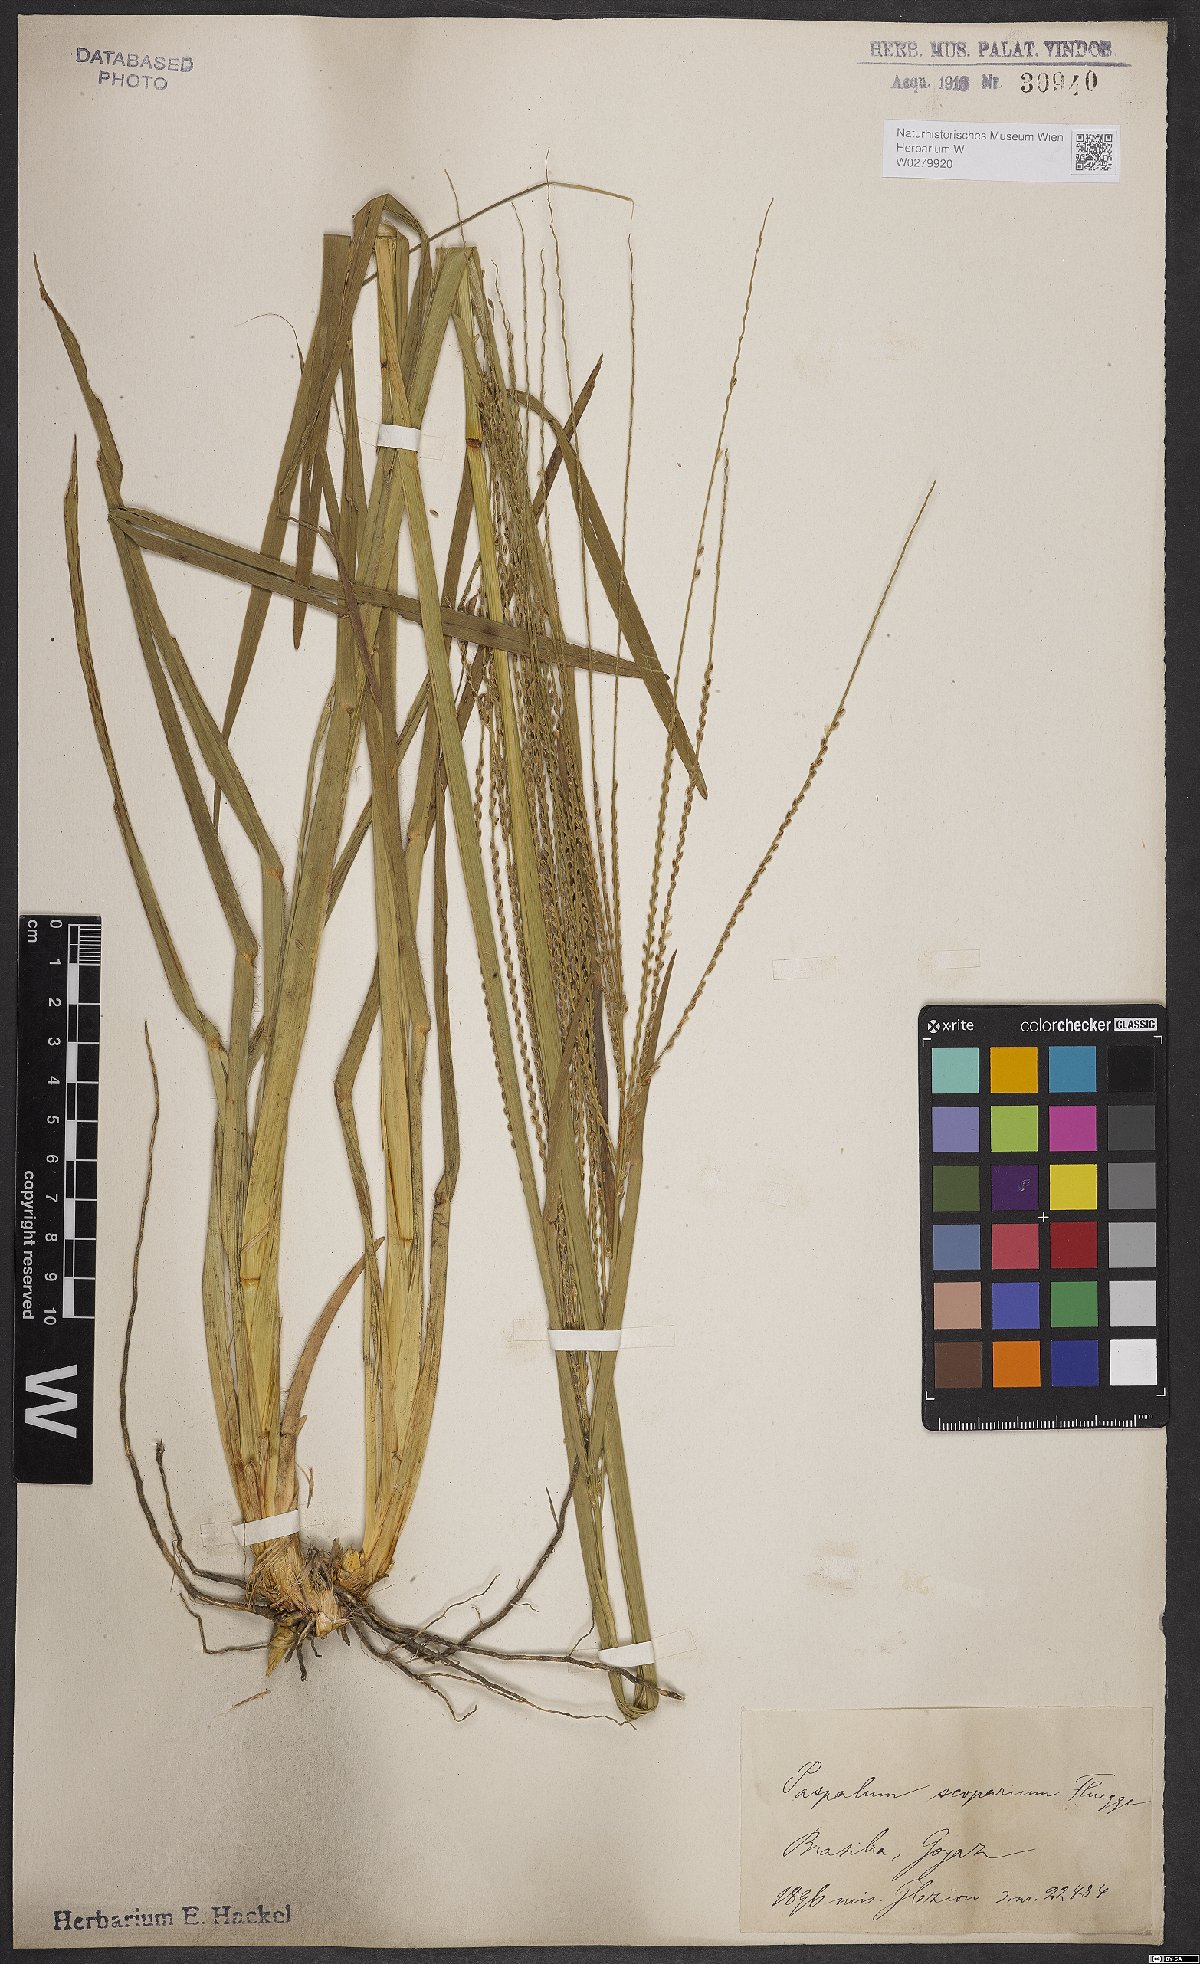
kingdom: Plantae
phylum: Tracheophyta
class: Liliopsida
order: Poales
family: Poaceae
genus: Axonopus
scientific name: Axonopus scoparius
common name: Imperial grass
